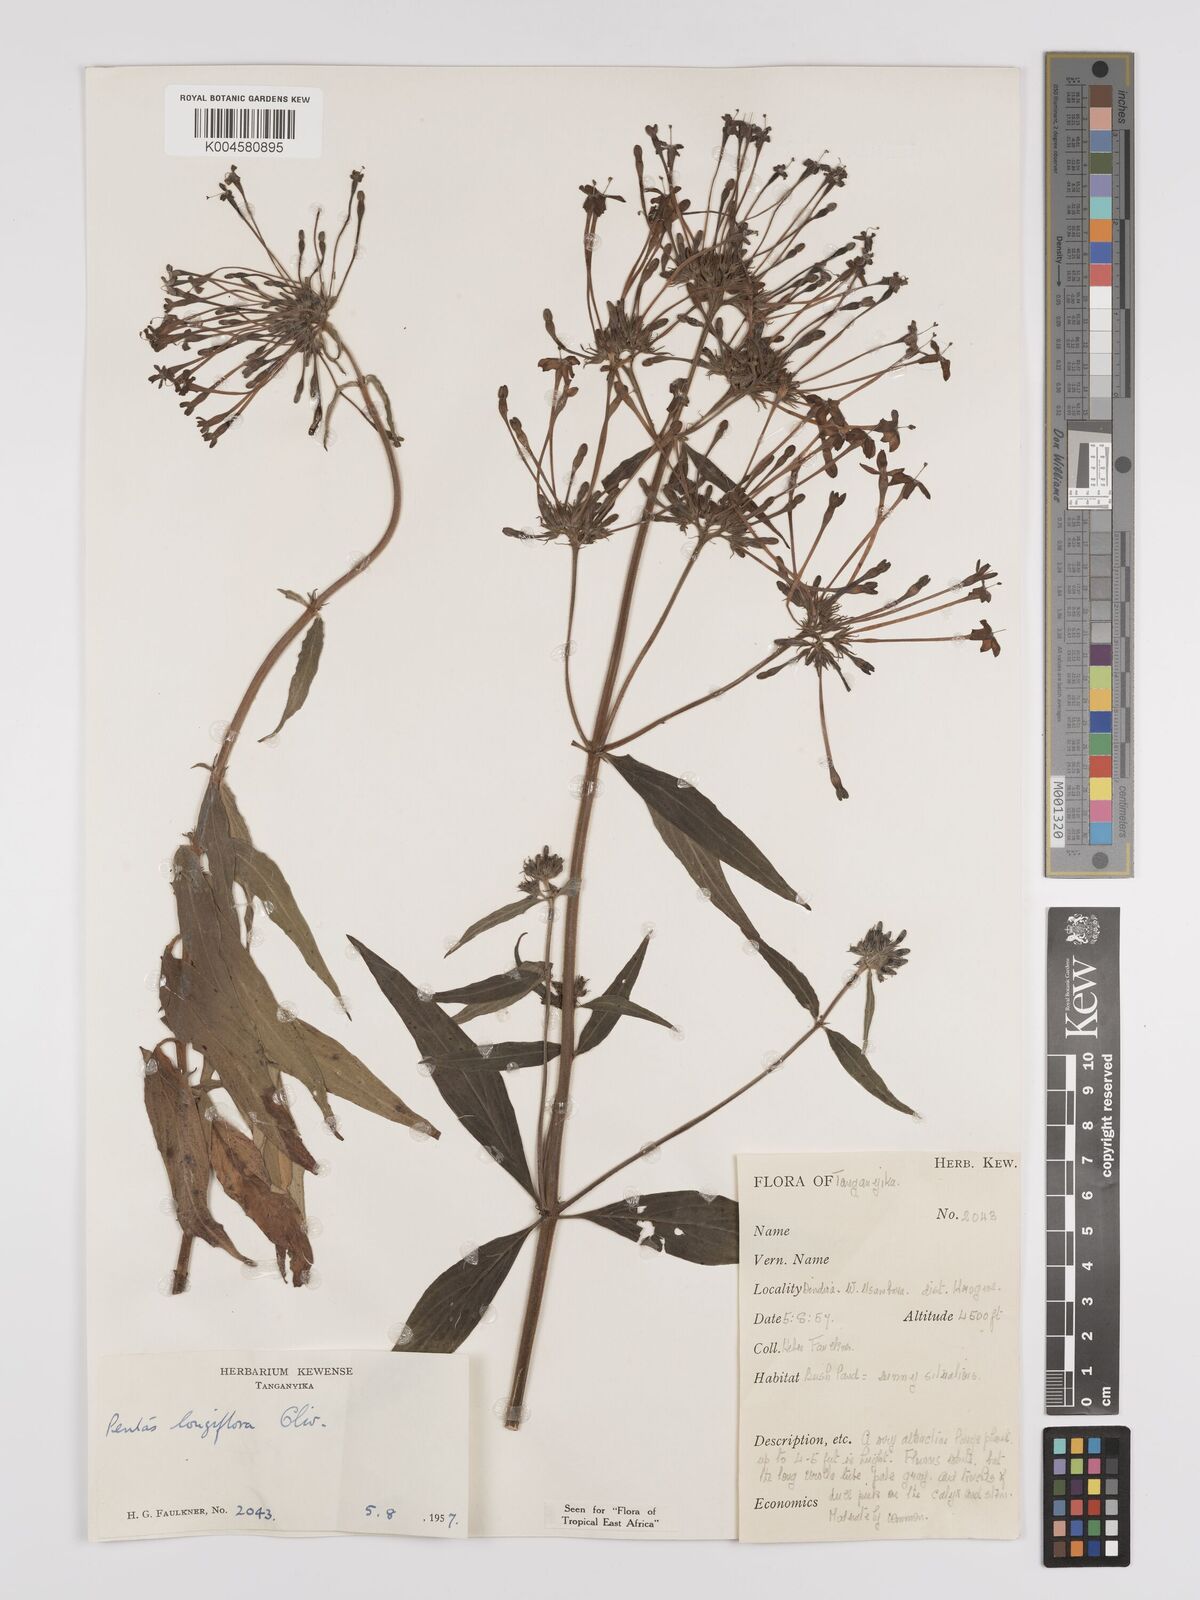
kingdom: Plantae
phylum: Tracheophyta
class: Magnoliopsida
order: Gentianales
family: Rubiaceae
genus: Dolichopentas
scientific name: Dolichopentas longiflora
